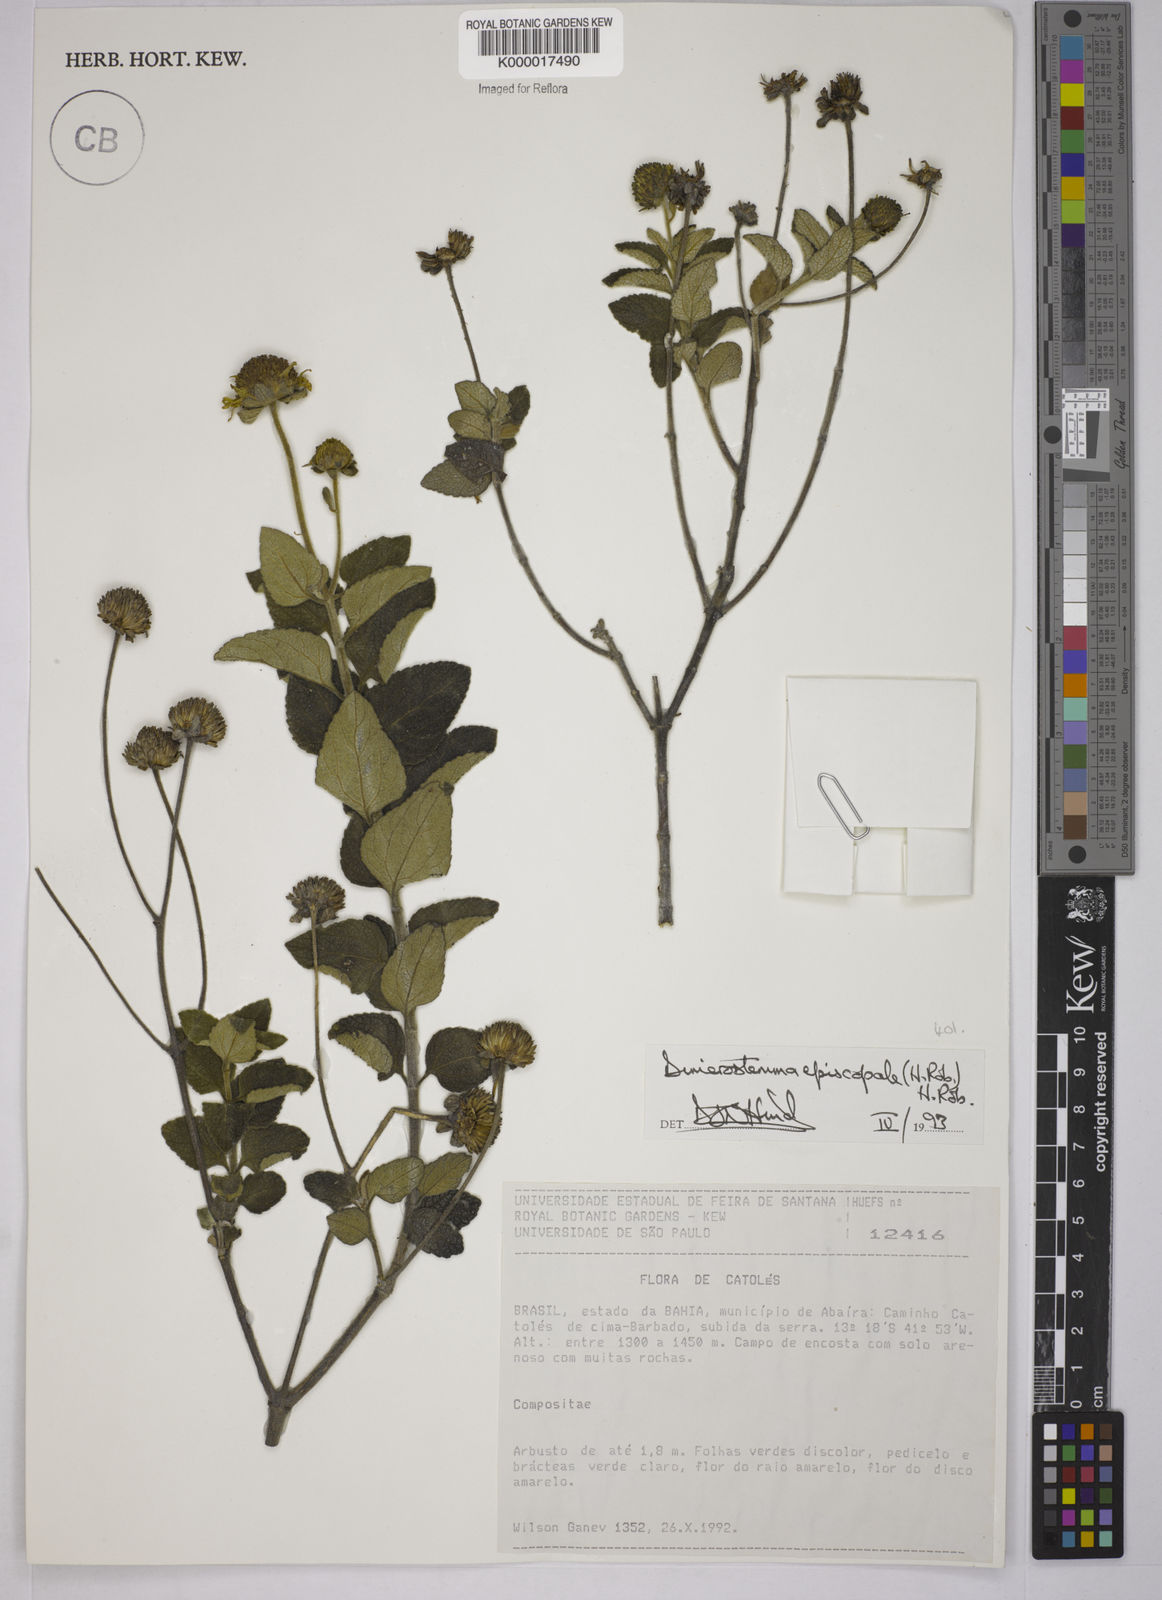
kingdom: Plantae
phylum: Tracheophyta
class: Magnoliopsida
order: Asterales
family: Asteraceae
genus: Dimerostemma
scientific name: Dimerostemma episcopale
